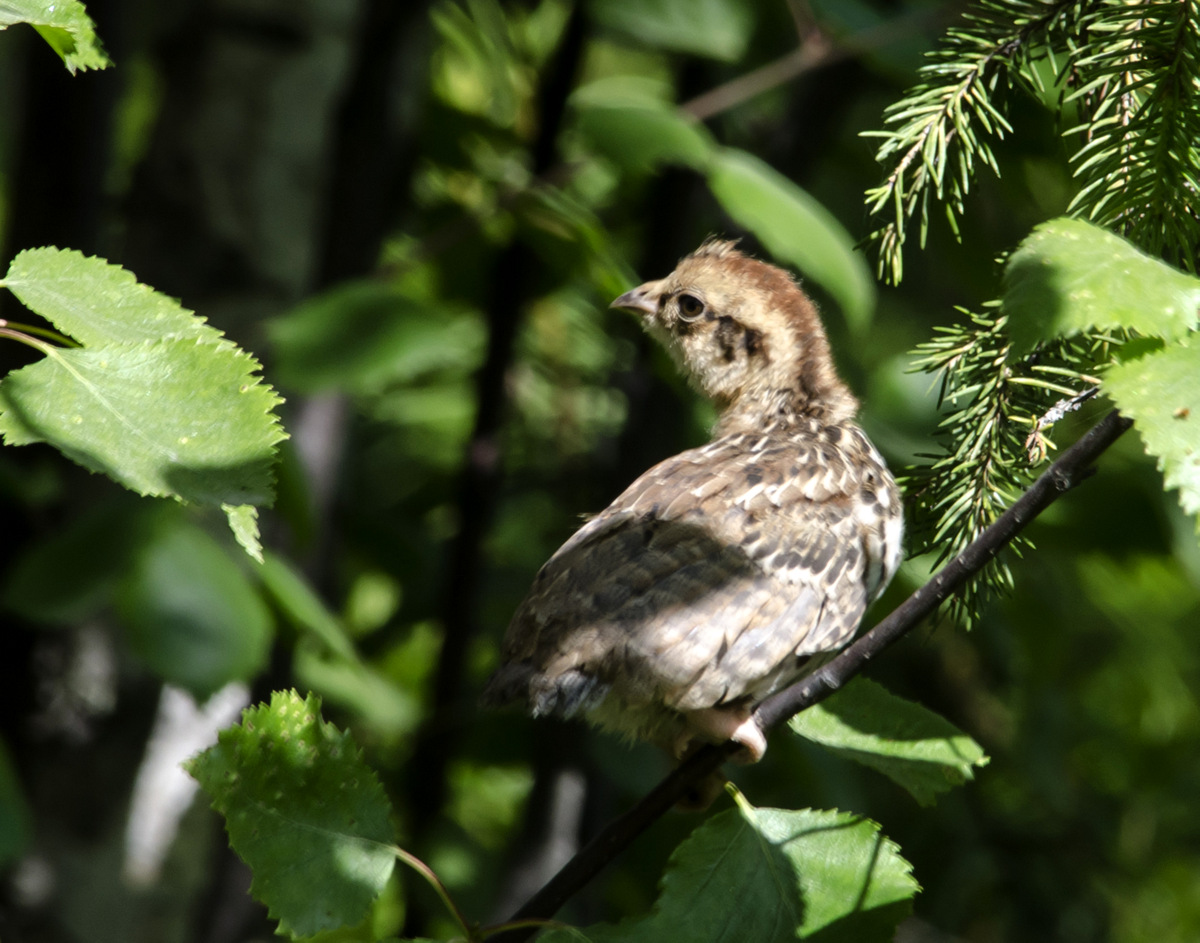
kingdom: Animalia
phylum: Chordata
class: Aves
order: Galliformes
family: Phasianidae
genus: Lyrurus
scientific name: Lyrurus tetrix
